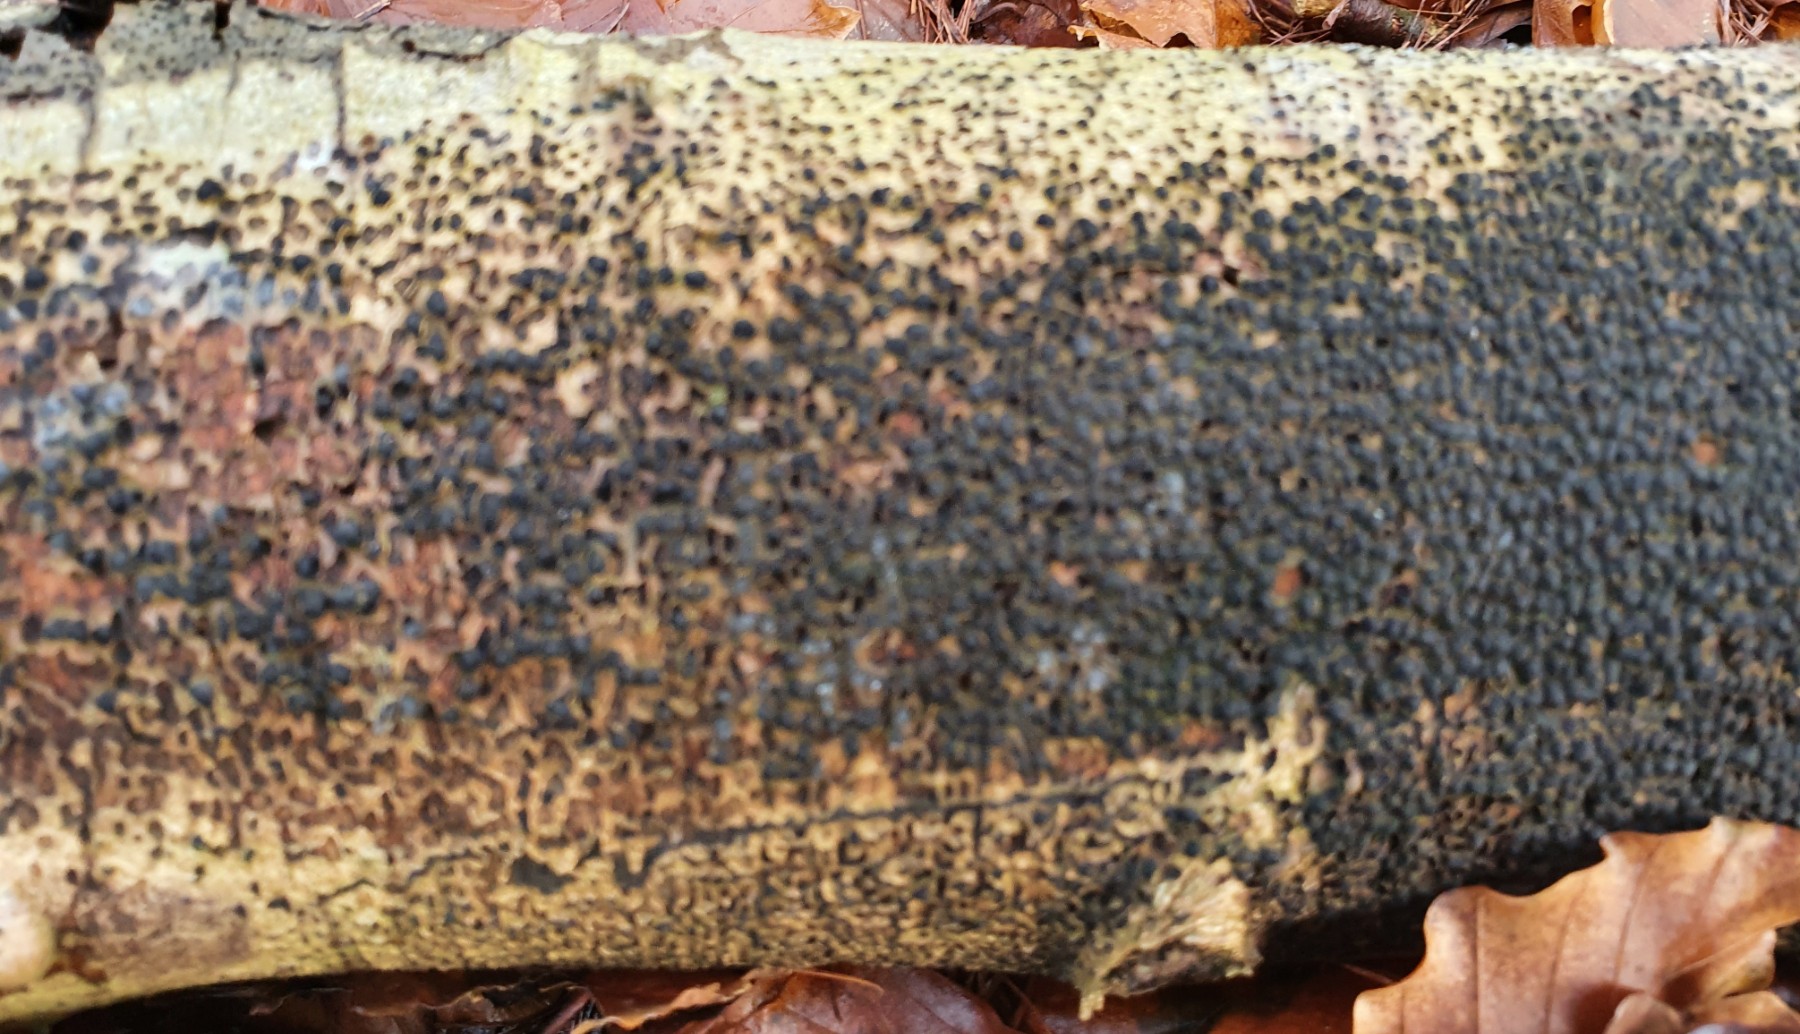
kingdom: Fungi
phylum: Ascomycota
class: Sordariomycetes
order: Xylariales
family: Melogrammataceae
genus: Melogramma
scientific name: Melogramma spiniferum
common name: bøgefod-kulhals
